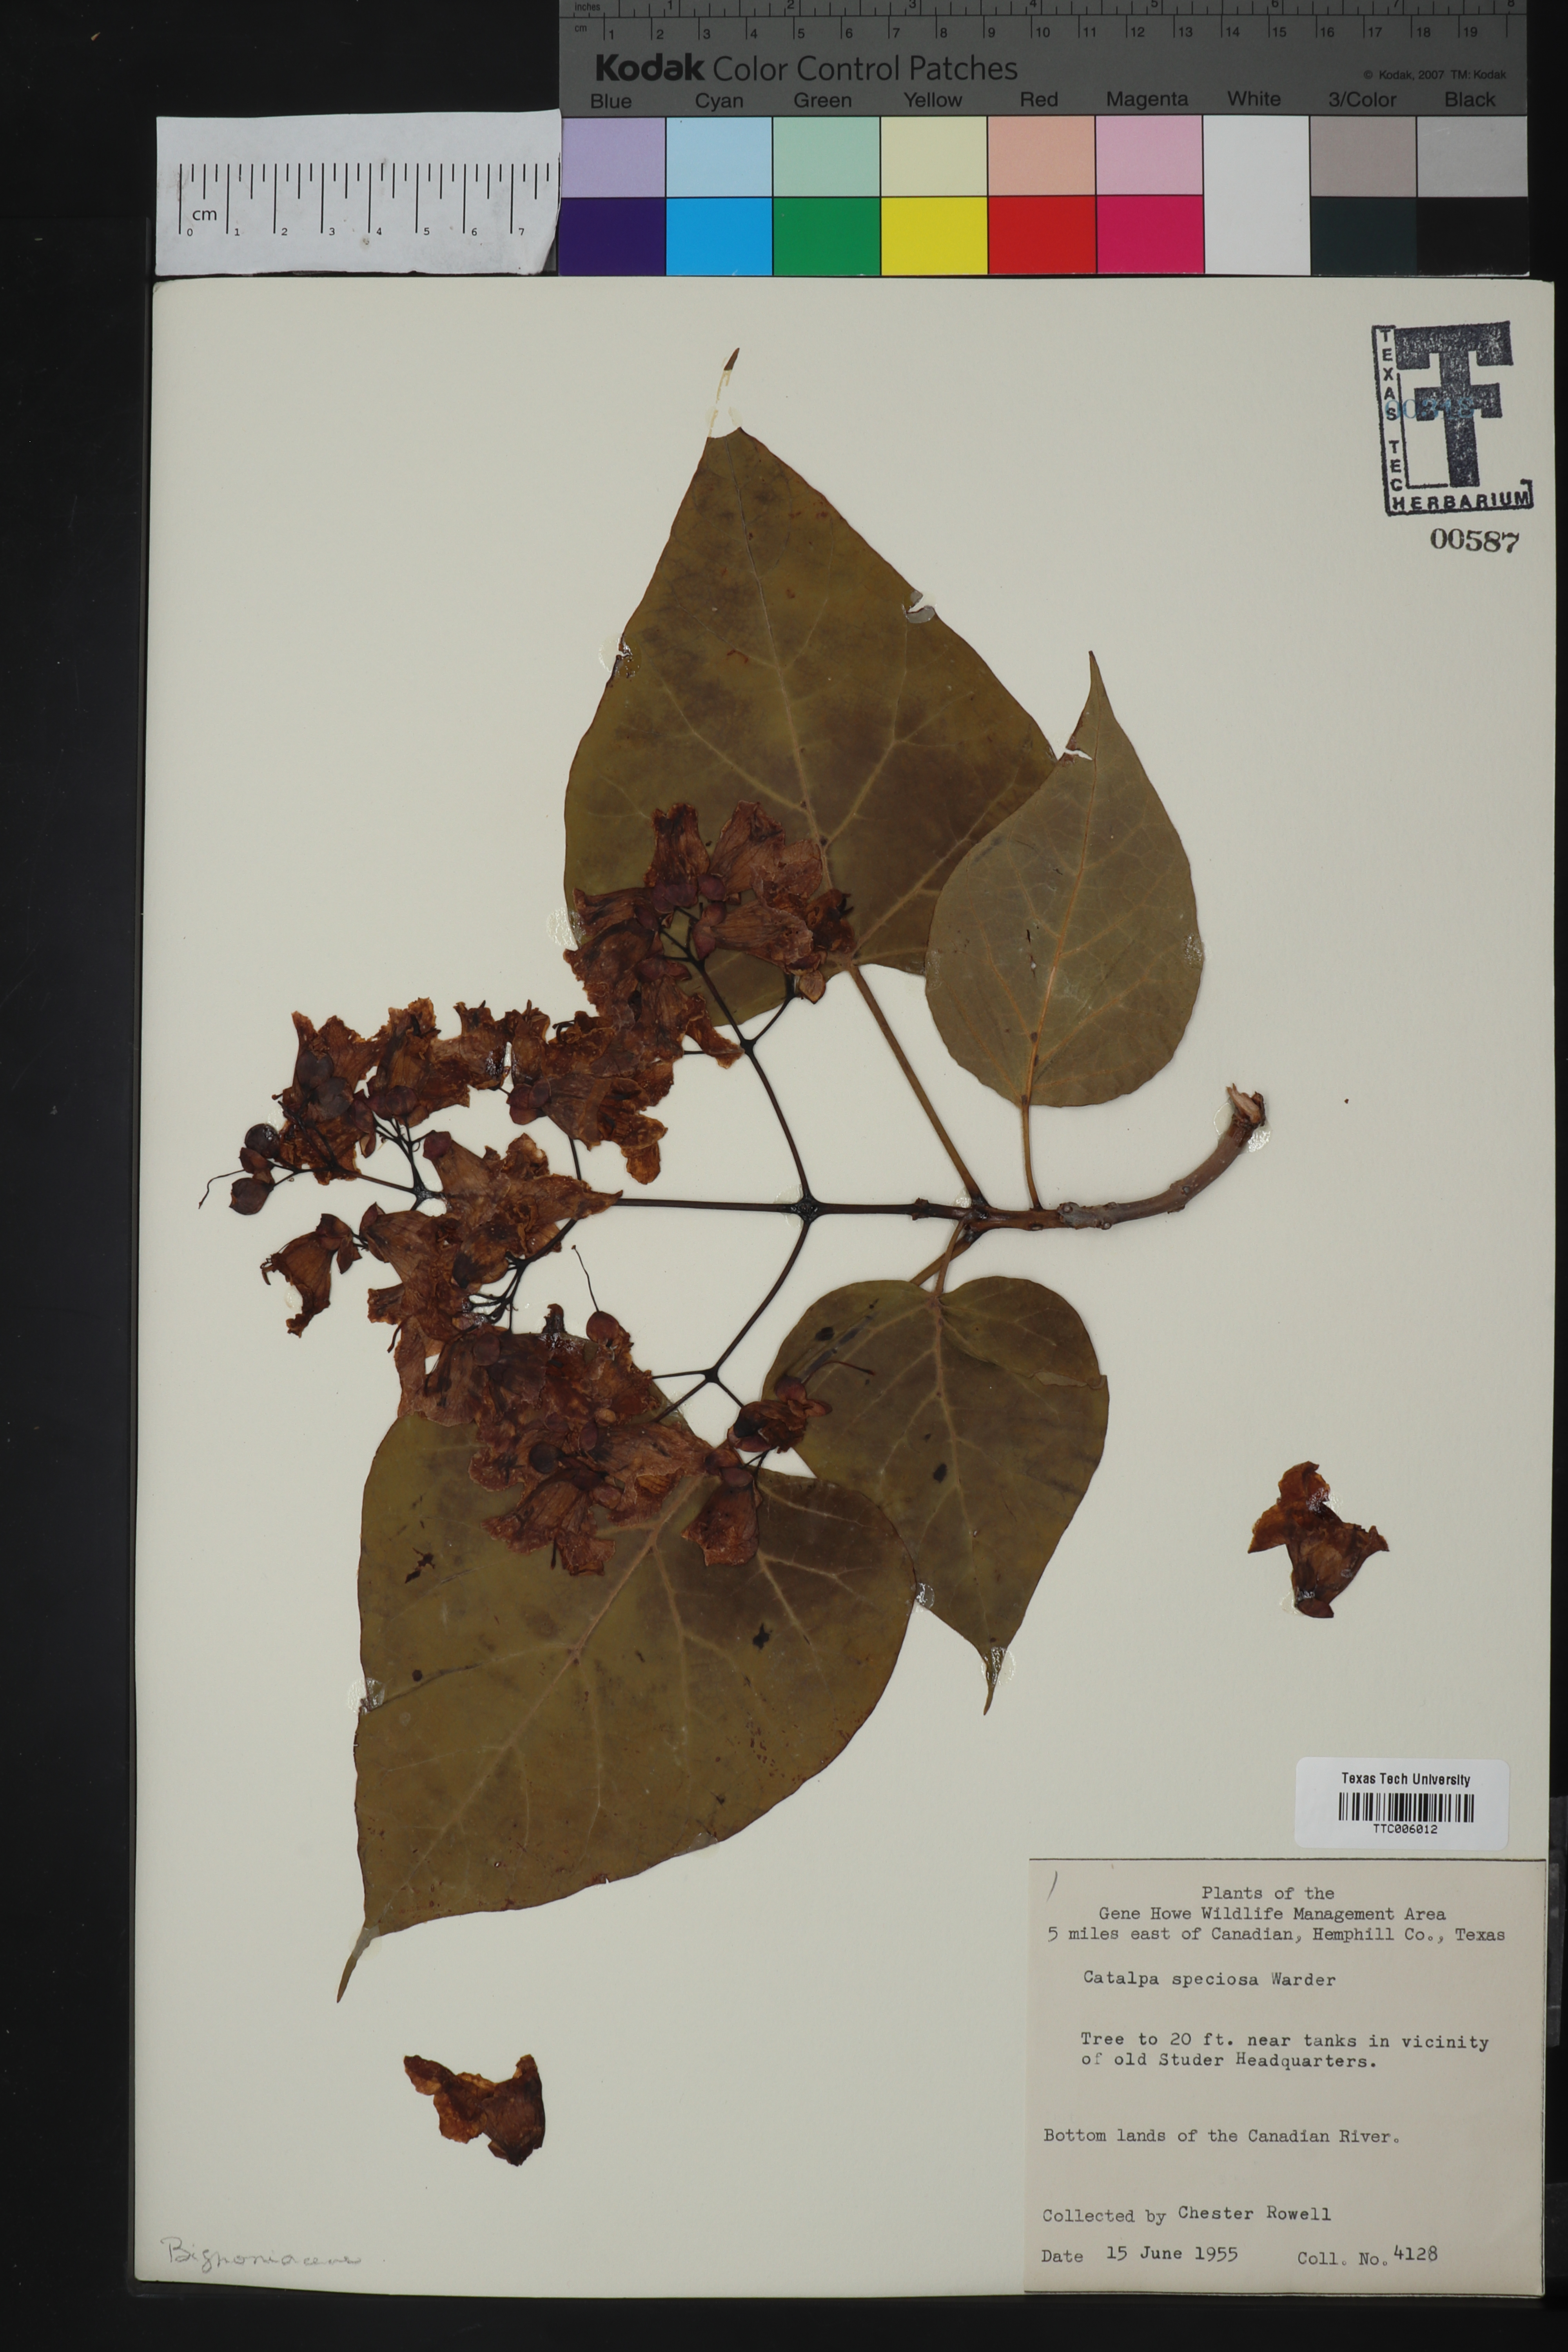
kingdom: Plantae
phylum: Tracheophyta
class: Magnoliopsida
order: Lamiales
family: Bignoniaceae
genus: Catalpa
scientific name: Catalpa speciosa
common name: Northern catalpa
